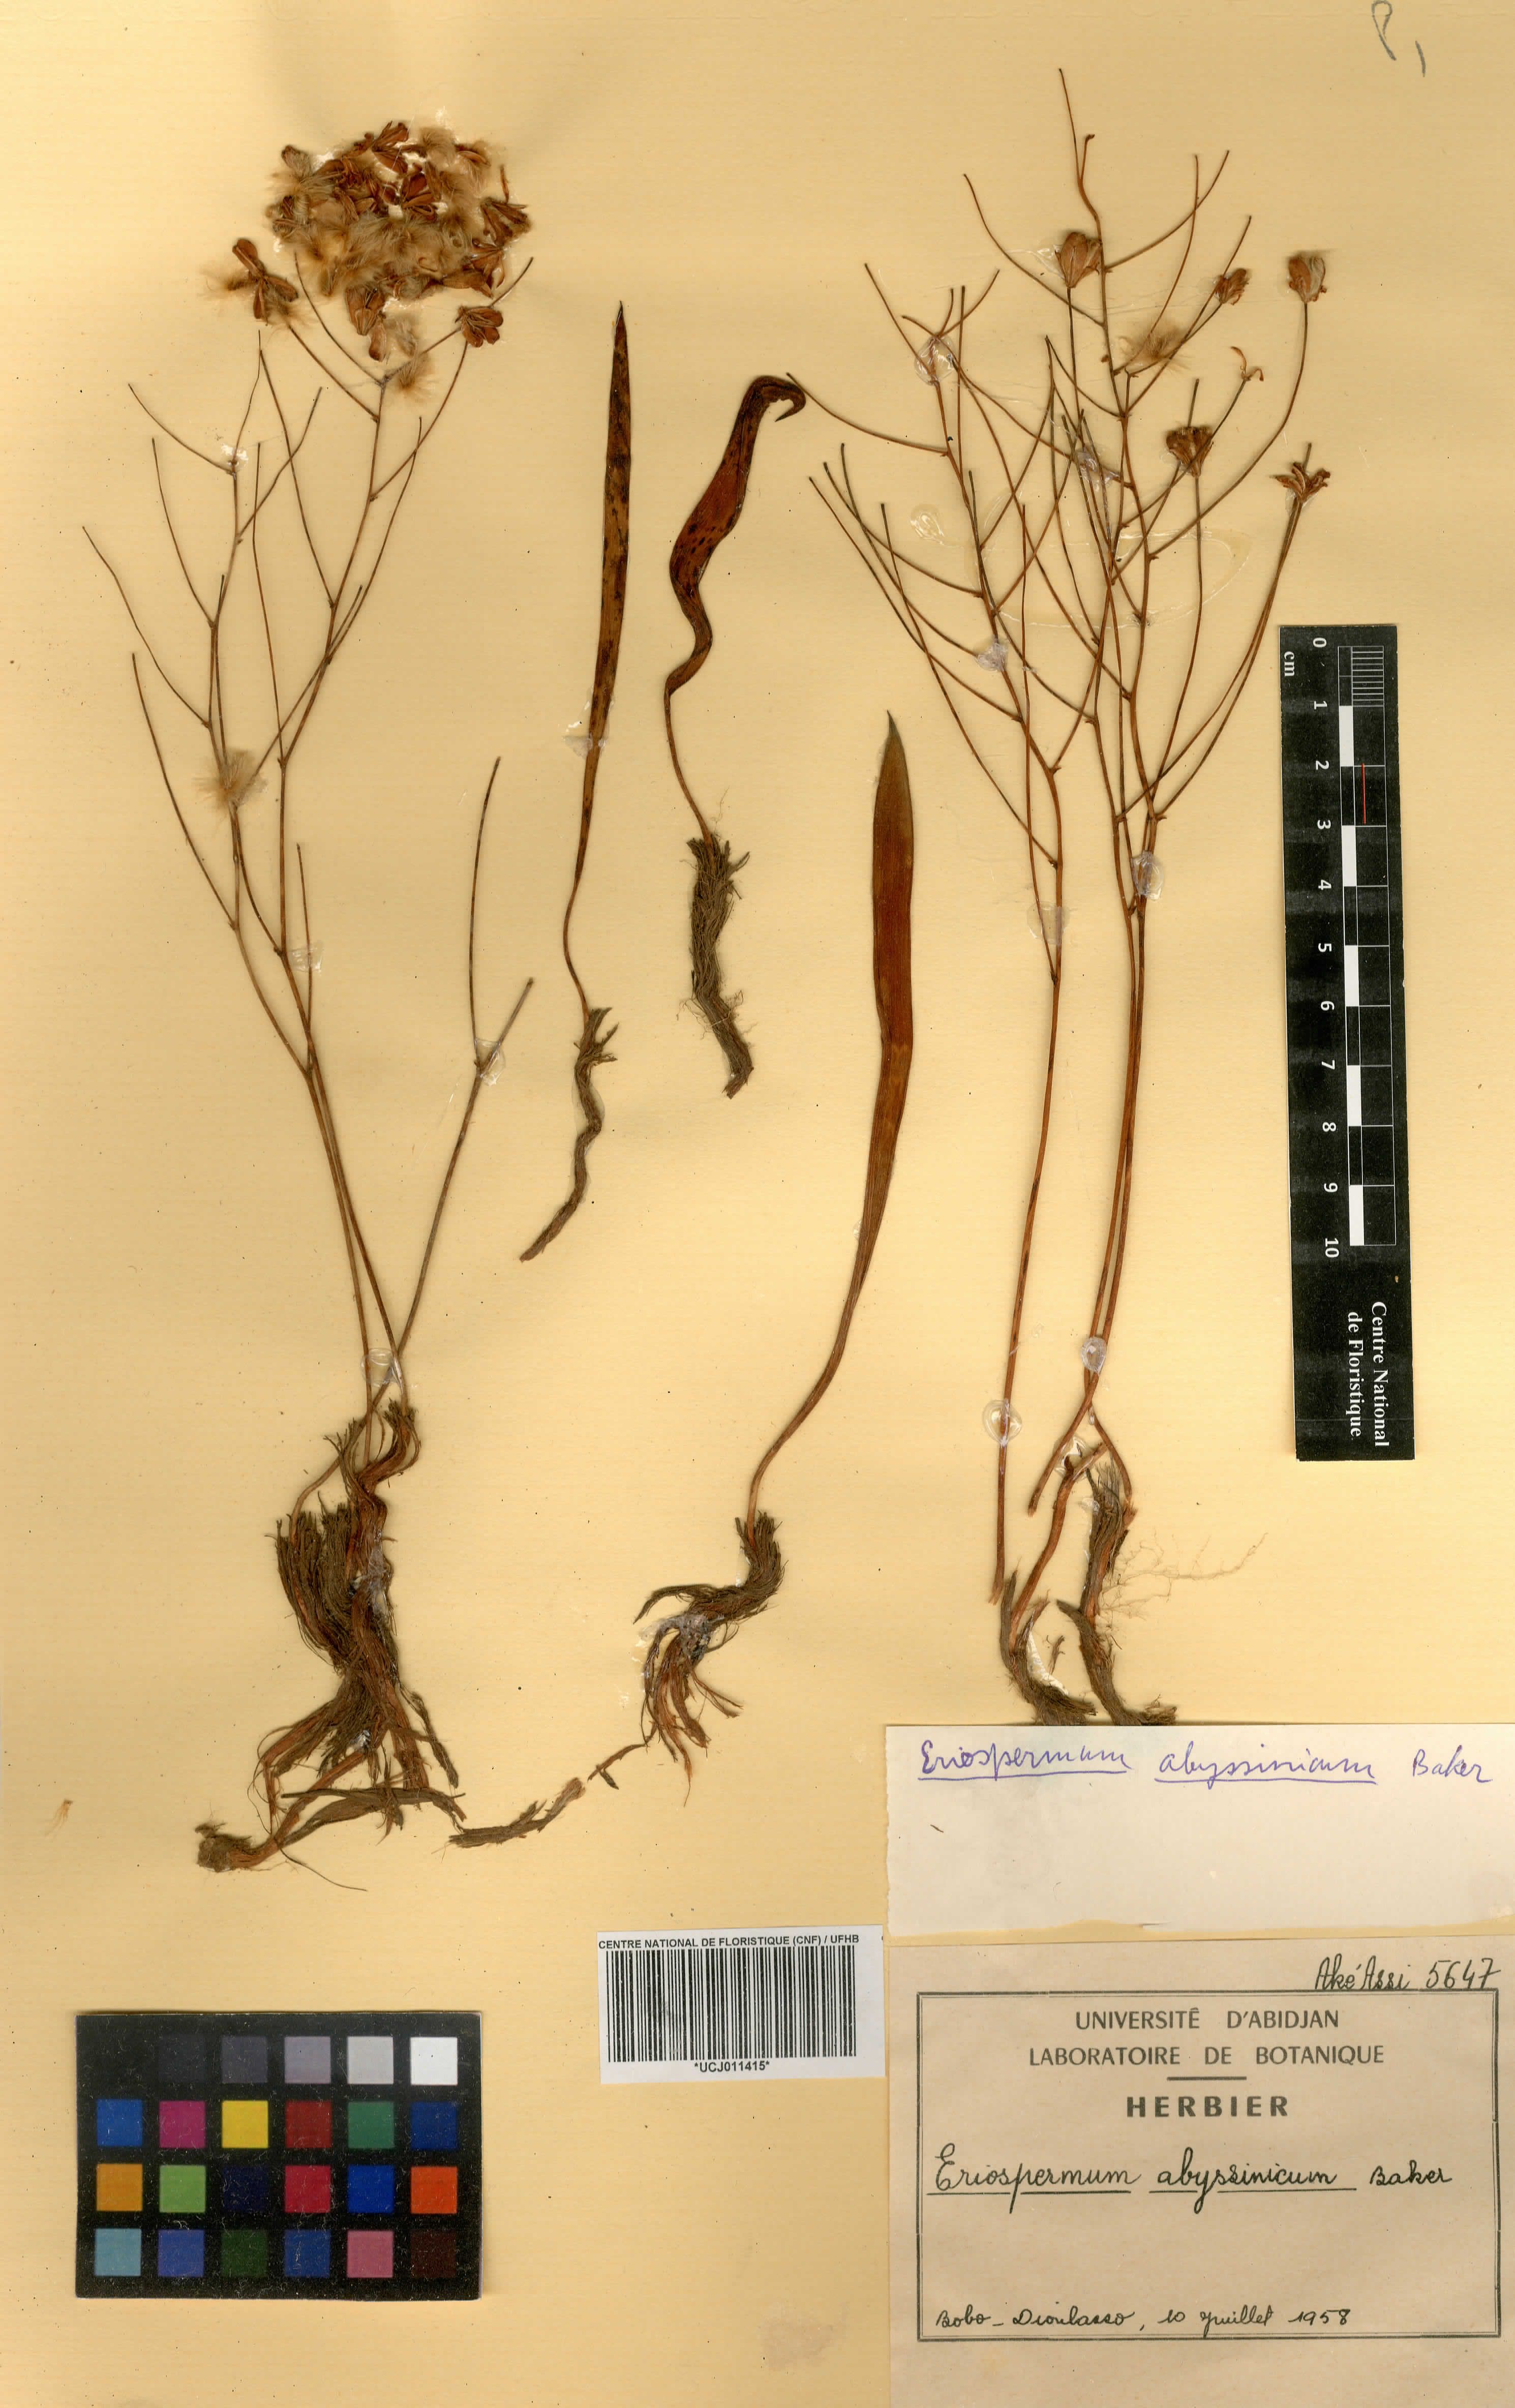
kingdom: Plantae
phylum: Tracheophyta
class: Liliopsida
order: Asparagales
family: Asparagaceae
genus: Eriospermum
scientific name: Eriospermum abyssinicum
